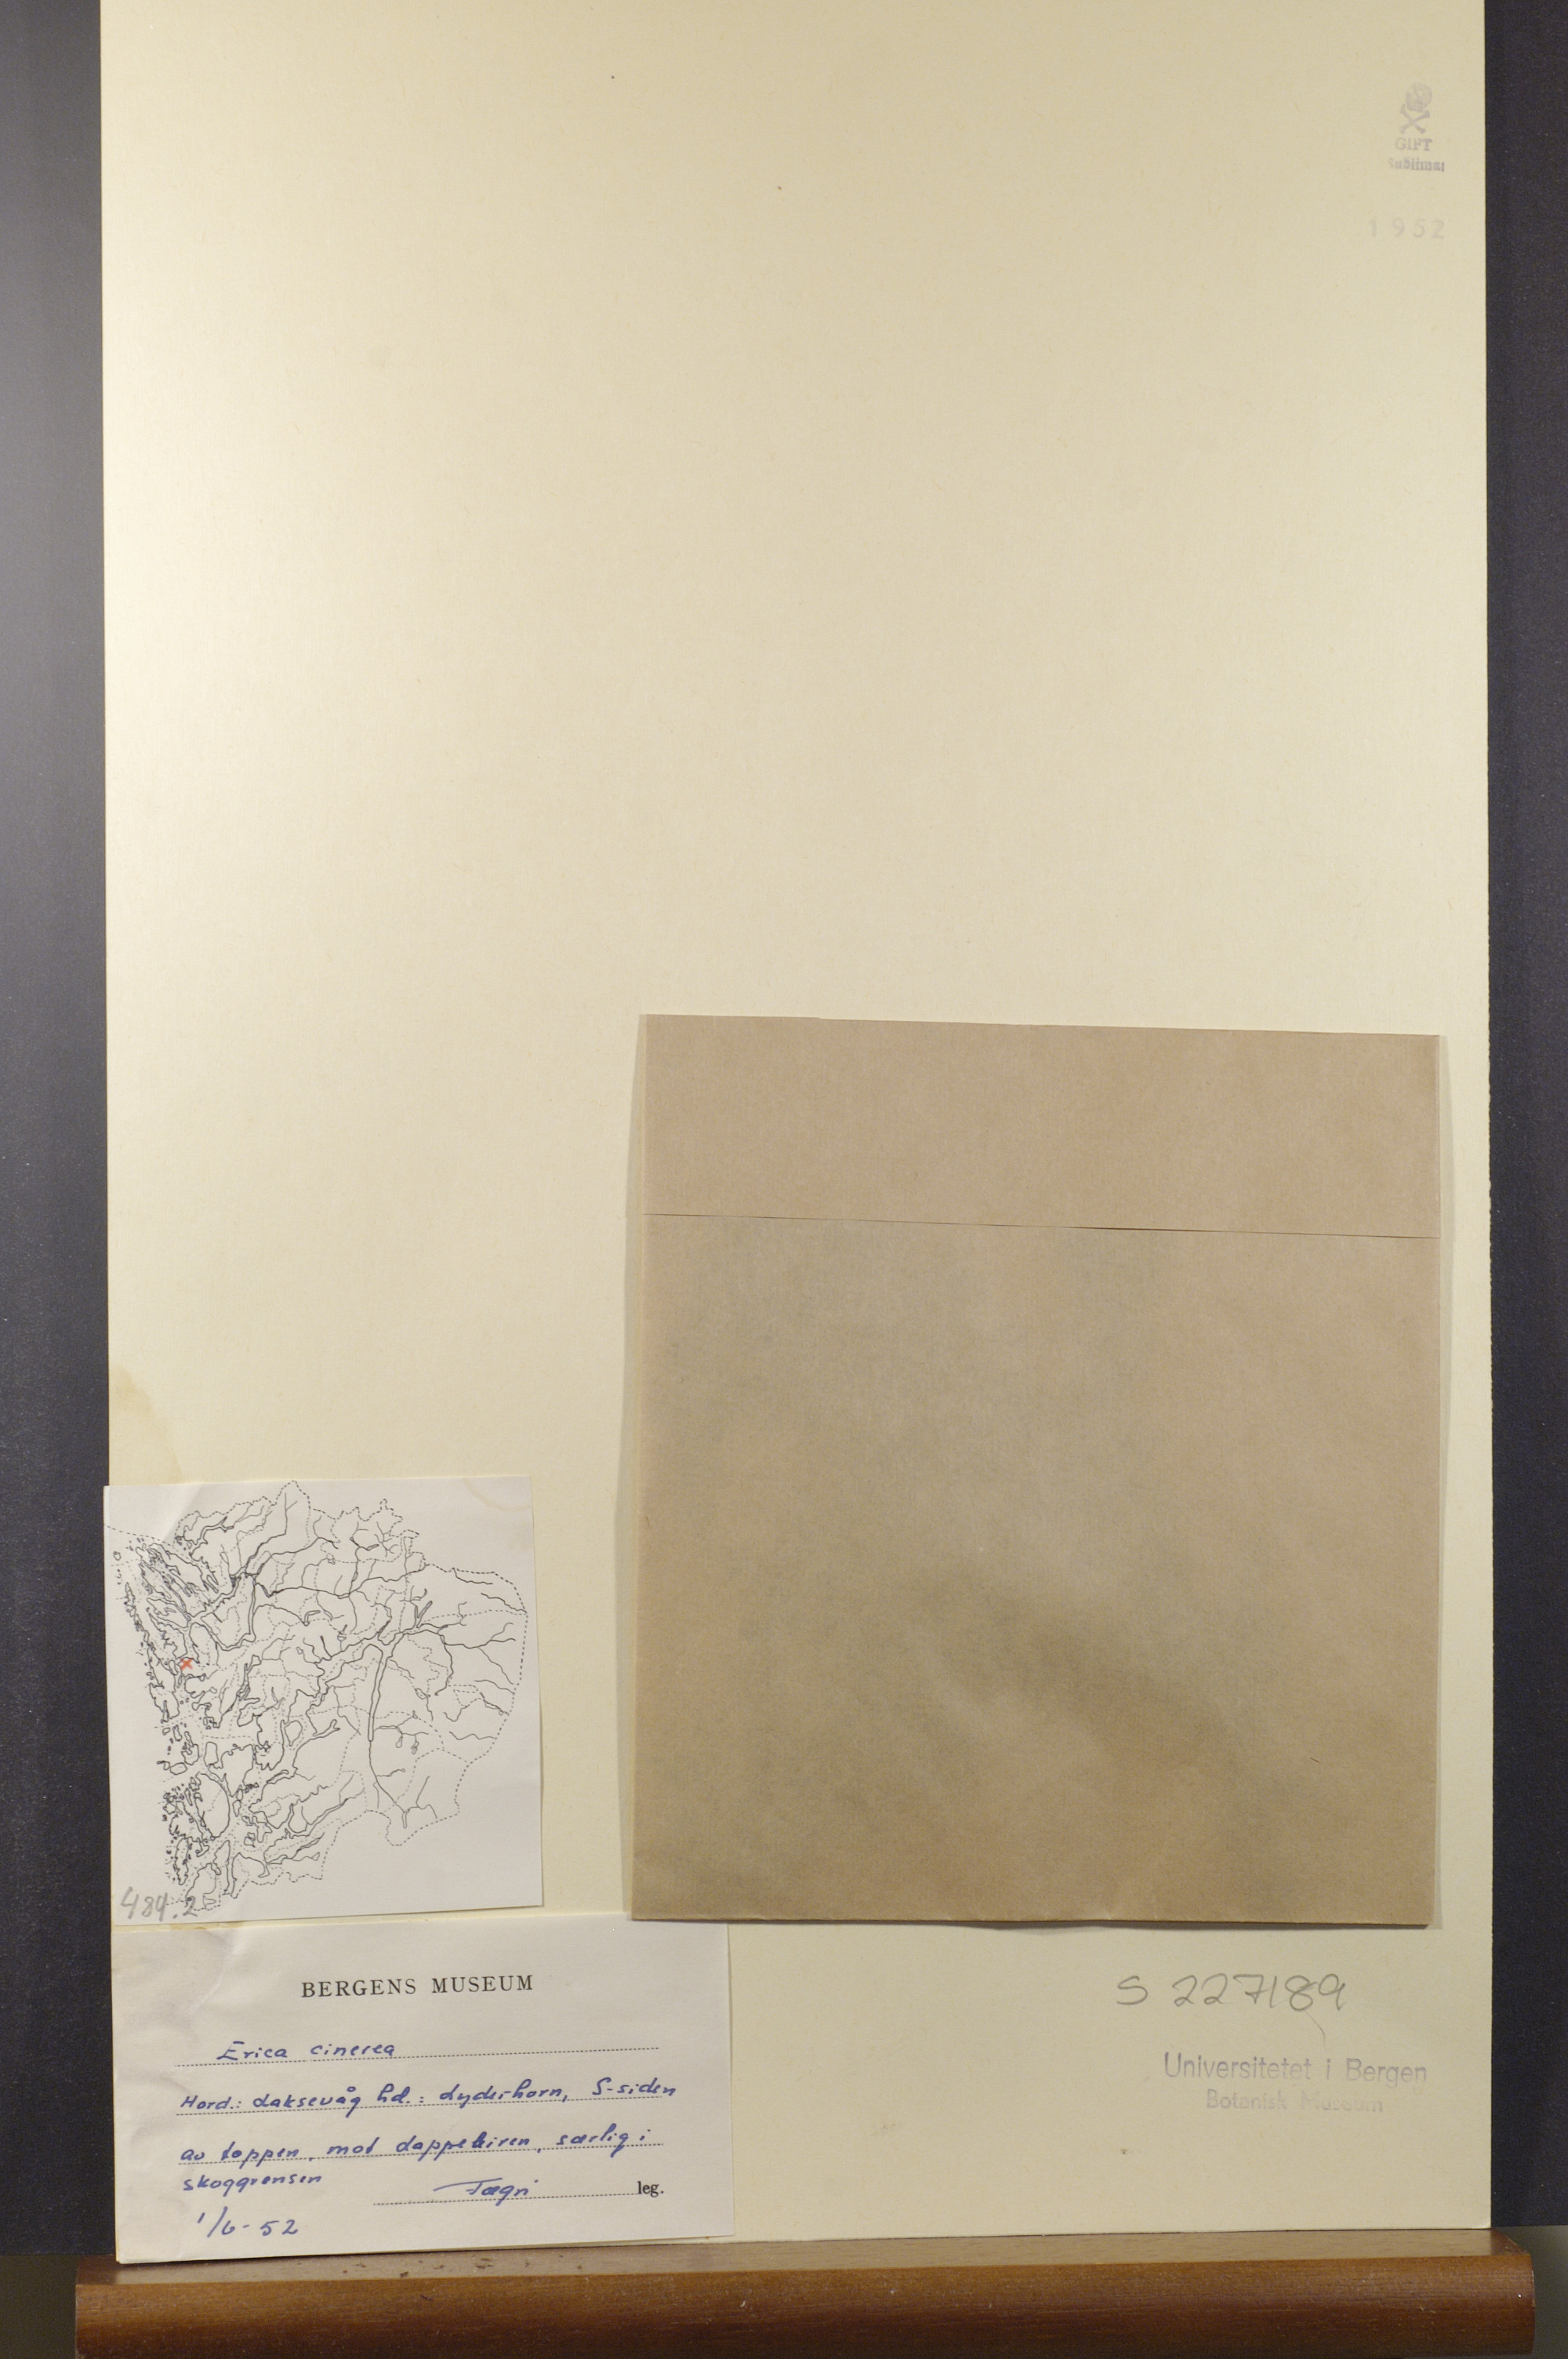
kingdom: Plantae
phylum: Tracheophyta
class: Magnoliopsida
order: Ericales
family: Ericaceae
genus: Erica
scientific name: Erica cinerea
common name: Bell heather
